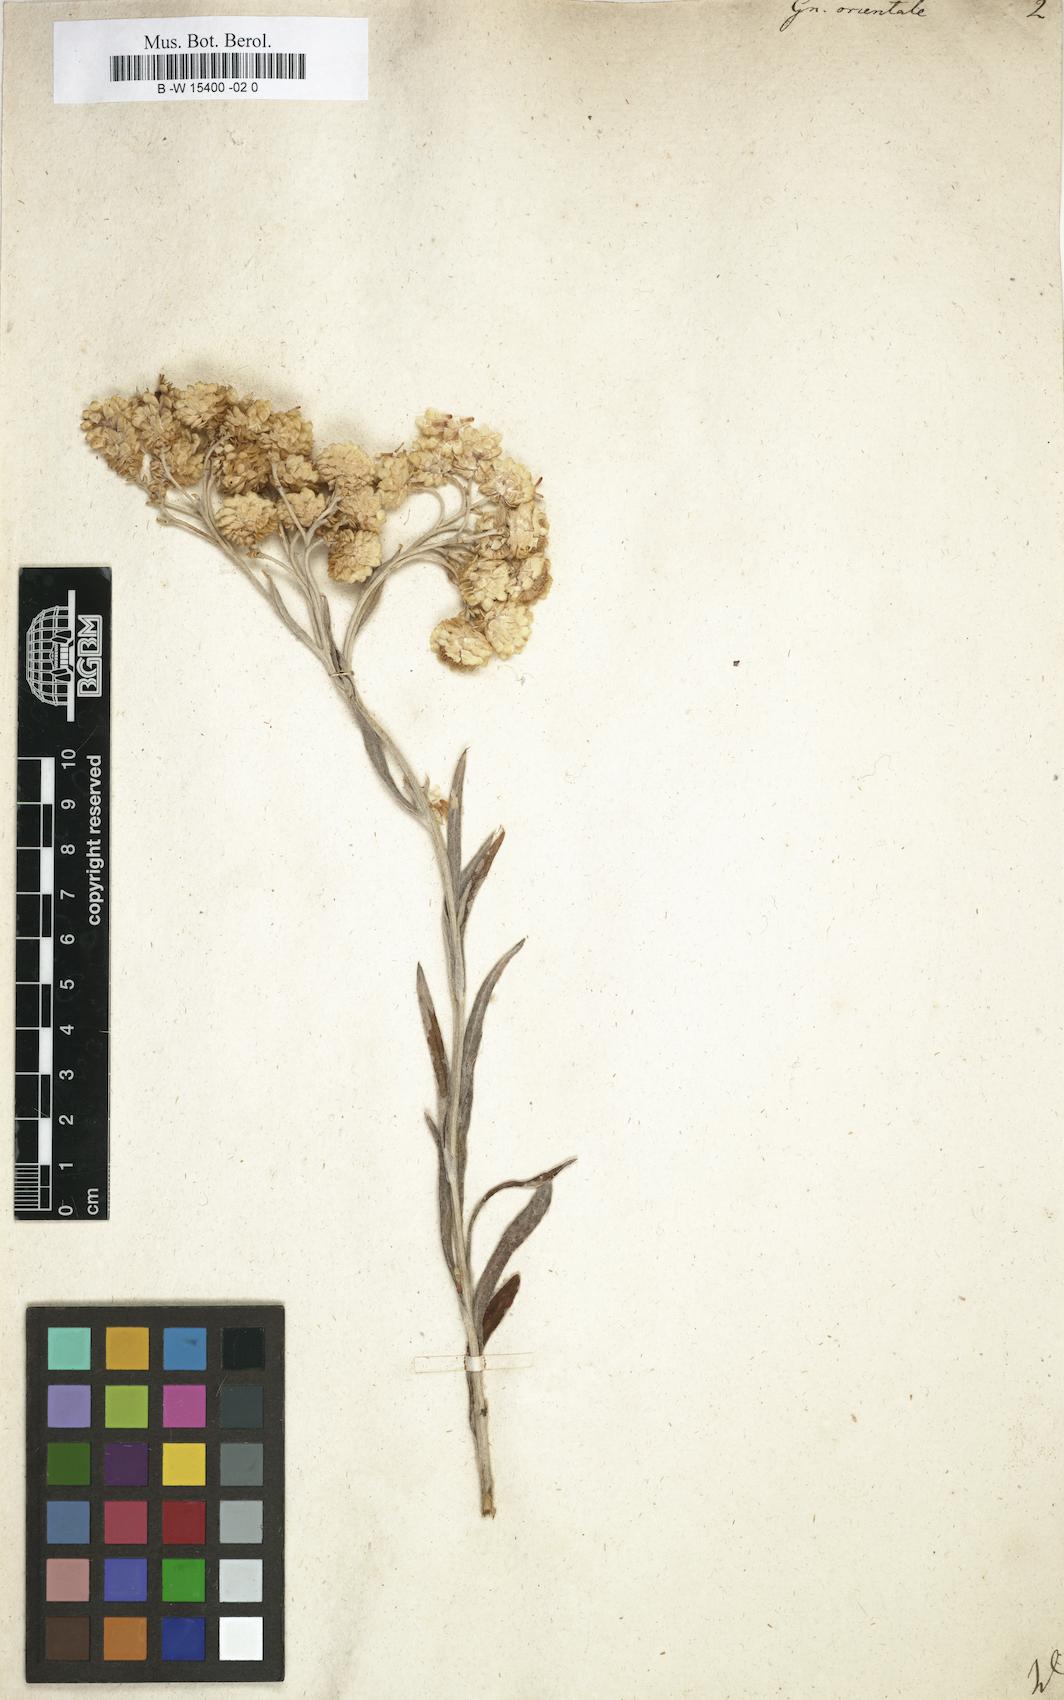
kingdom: Plantae
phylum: Tracheophyta
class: Magnoliopsida
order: Asterales
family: Asteraceae
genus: Helichrysum
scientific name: Helichrysum orientale
